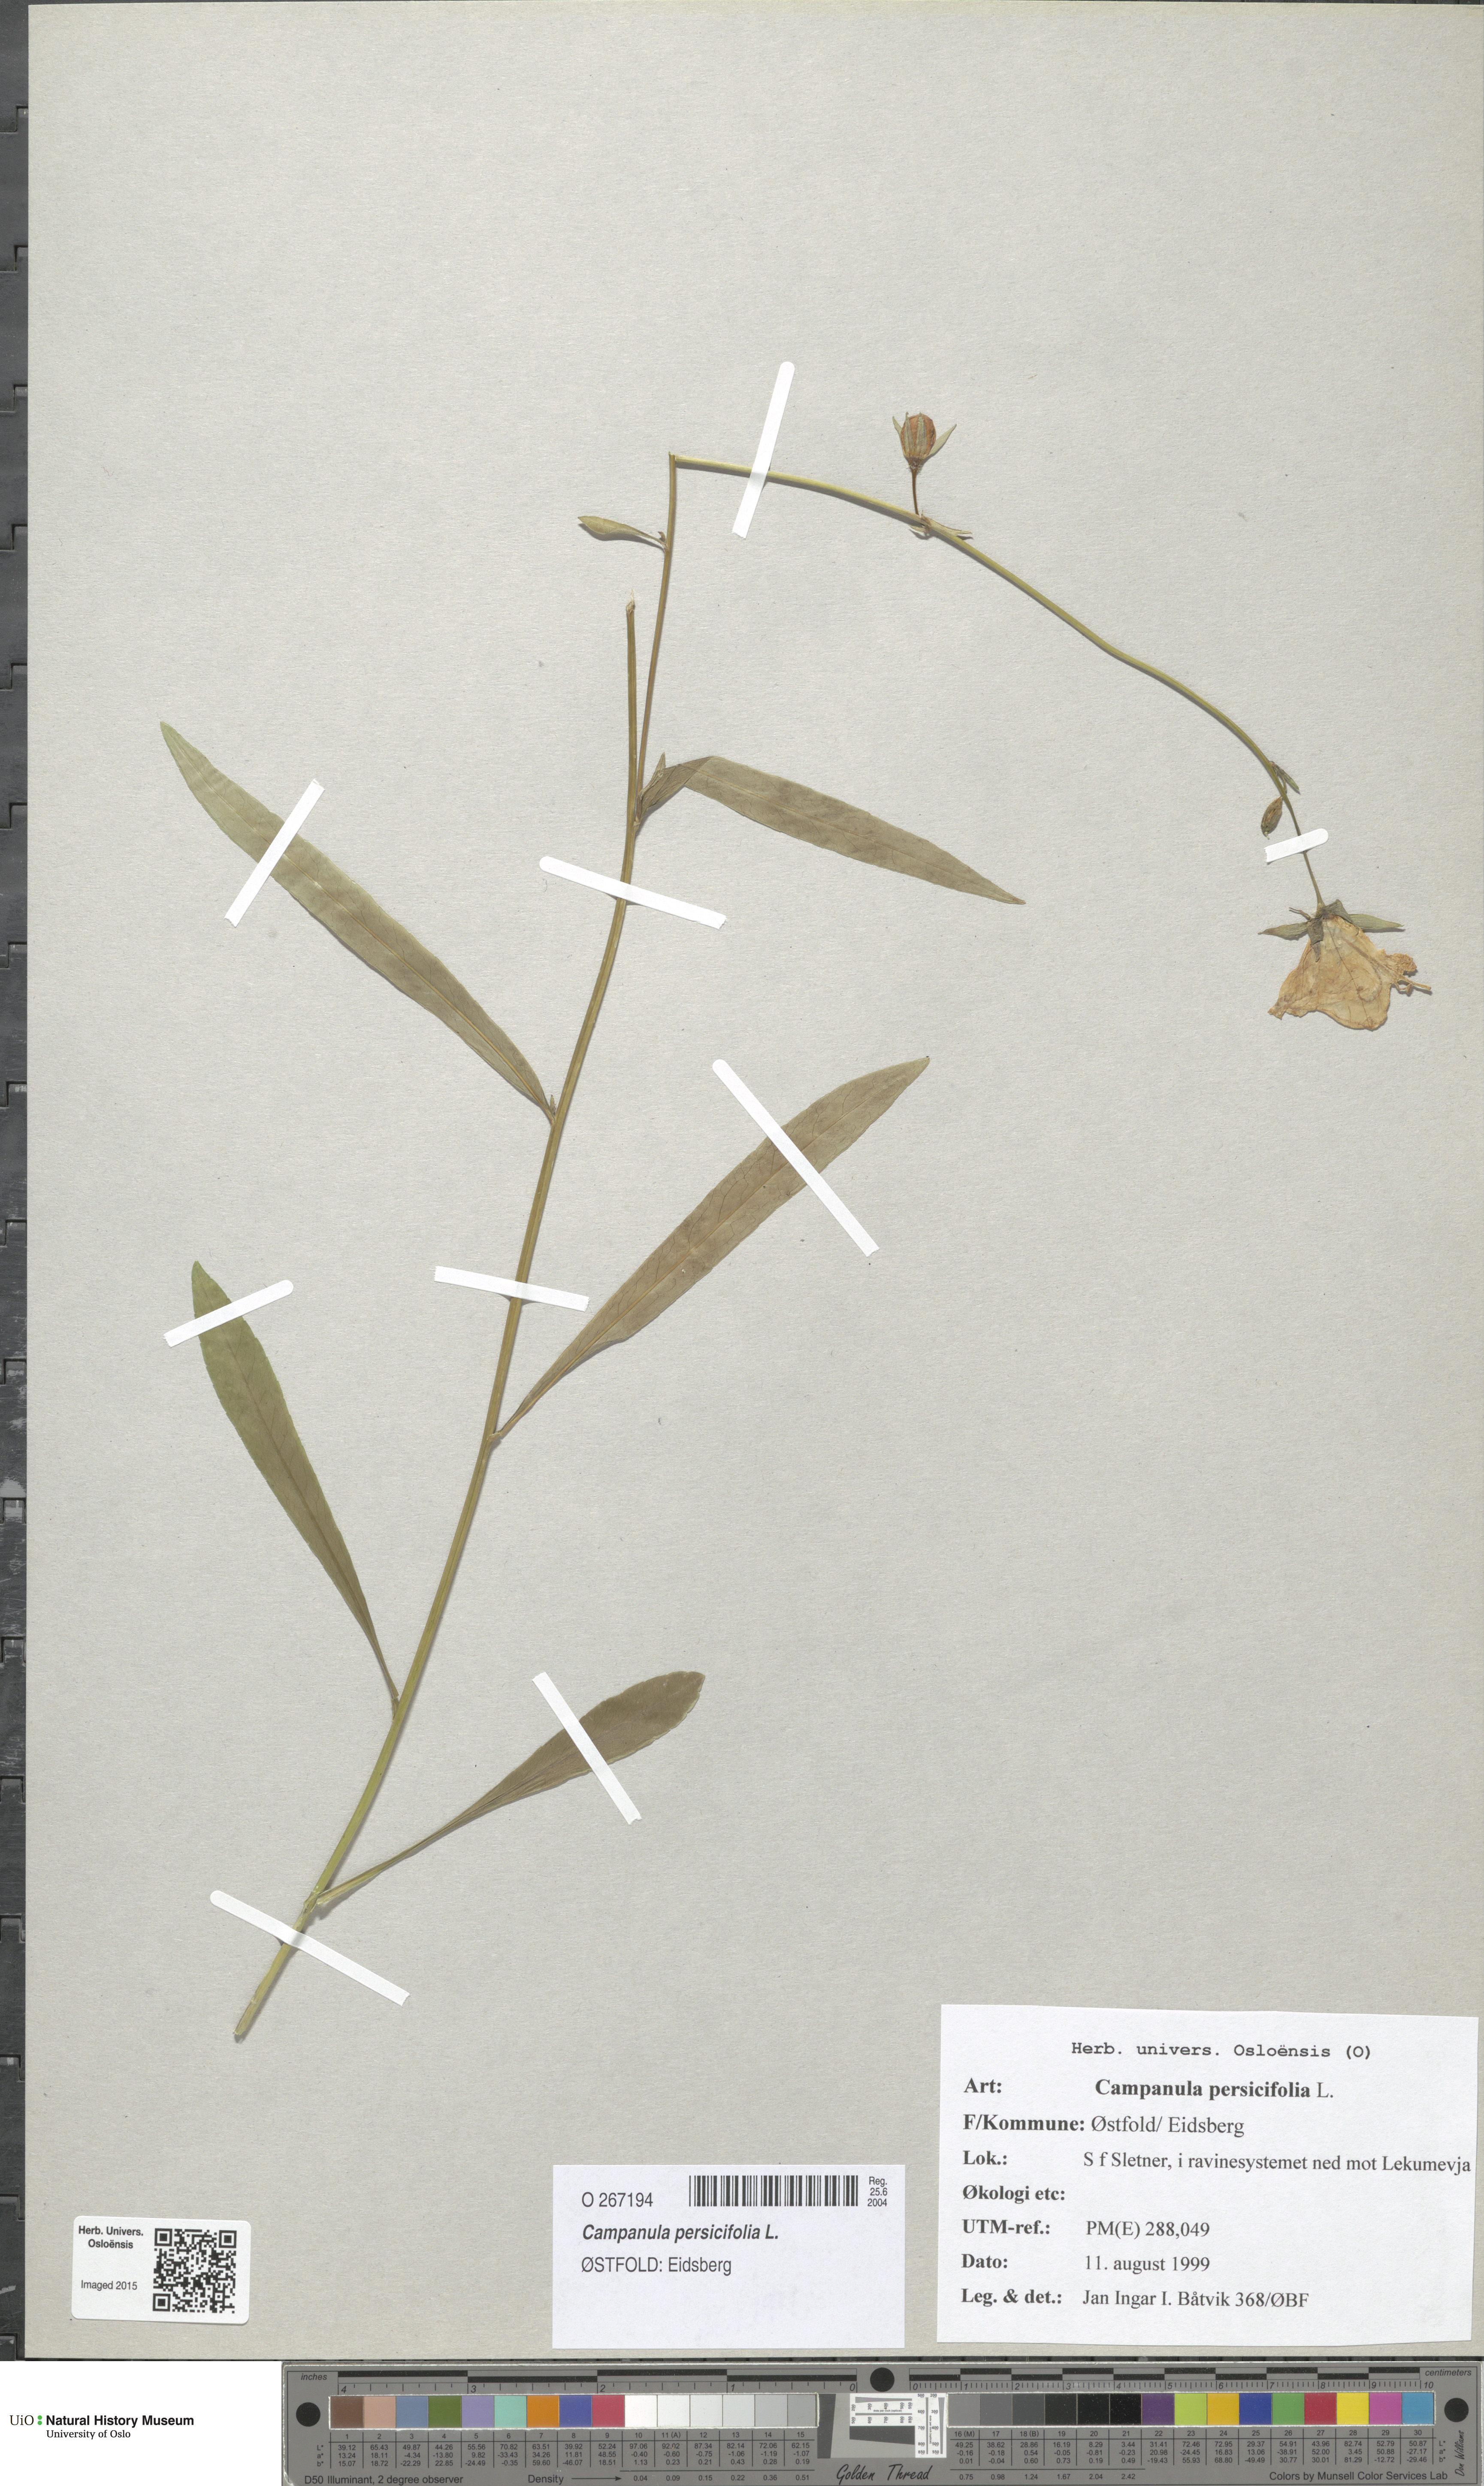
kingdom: Plantae
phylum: Tracheophyta
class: Magnoliopsida
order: Asterales
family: Campanulaceae
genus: Campanula
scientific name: Campanula persicifolia
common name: Peach-leaved bellflower
